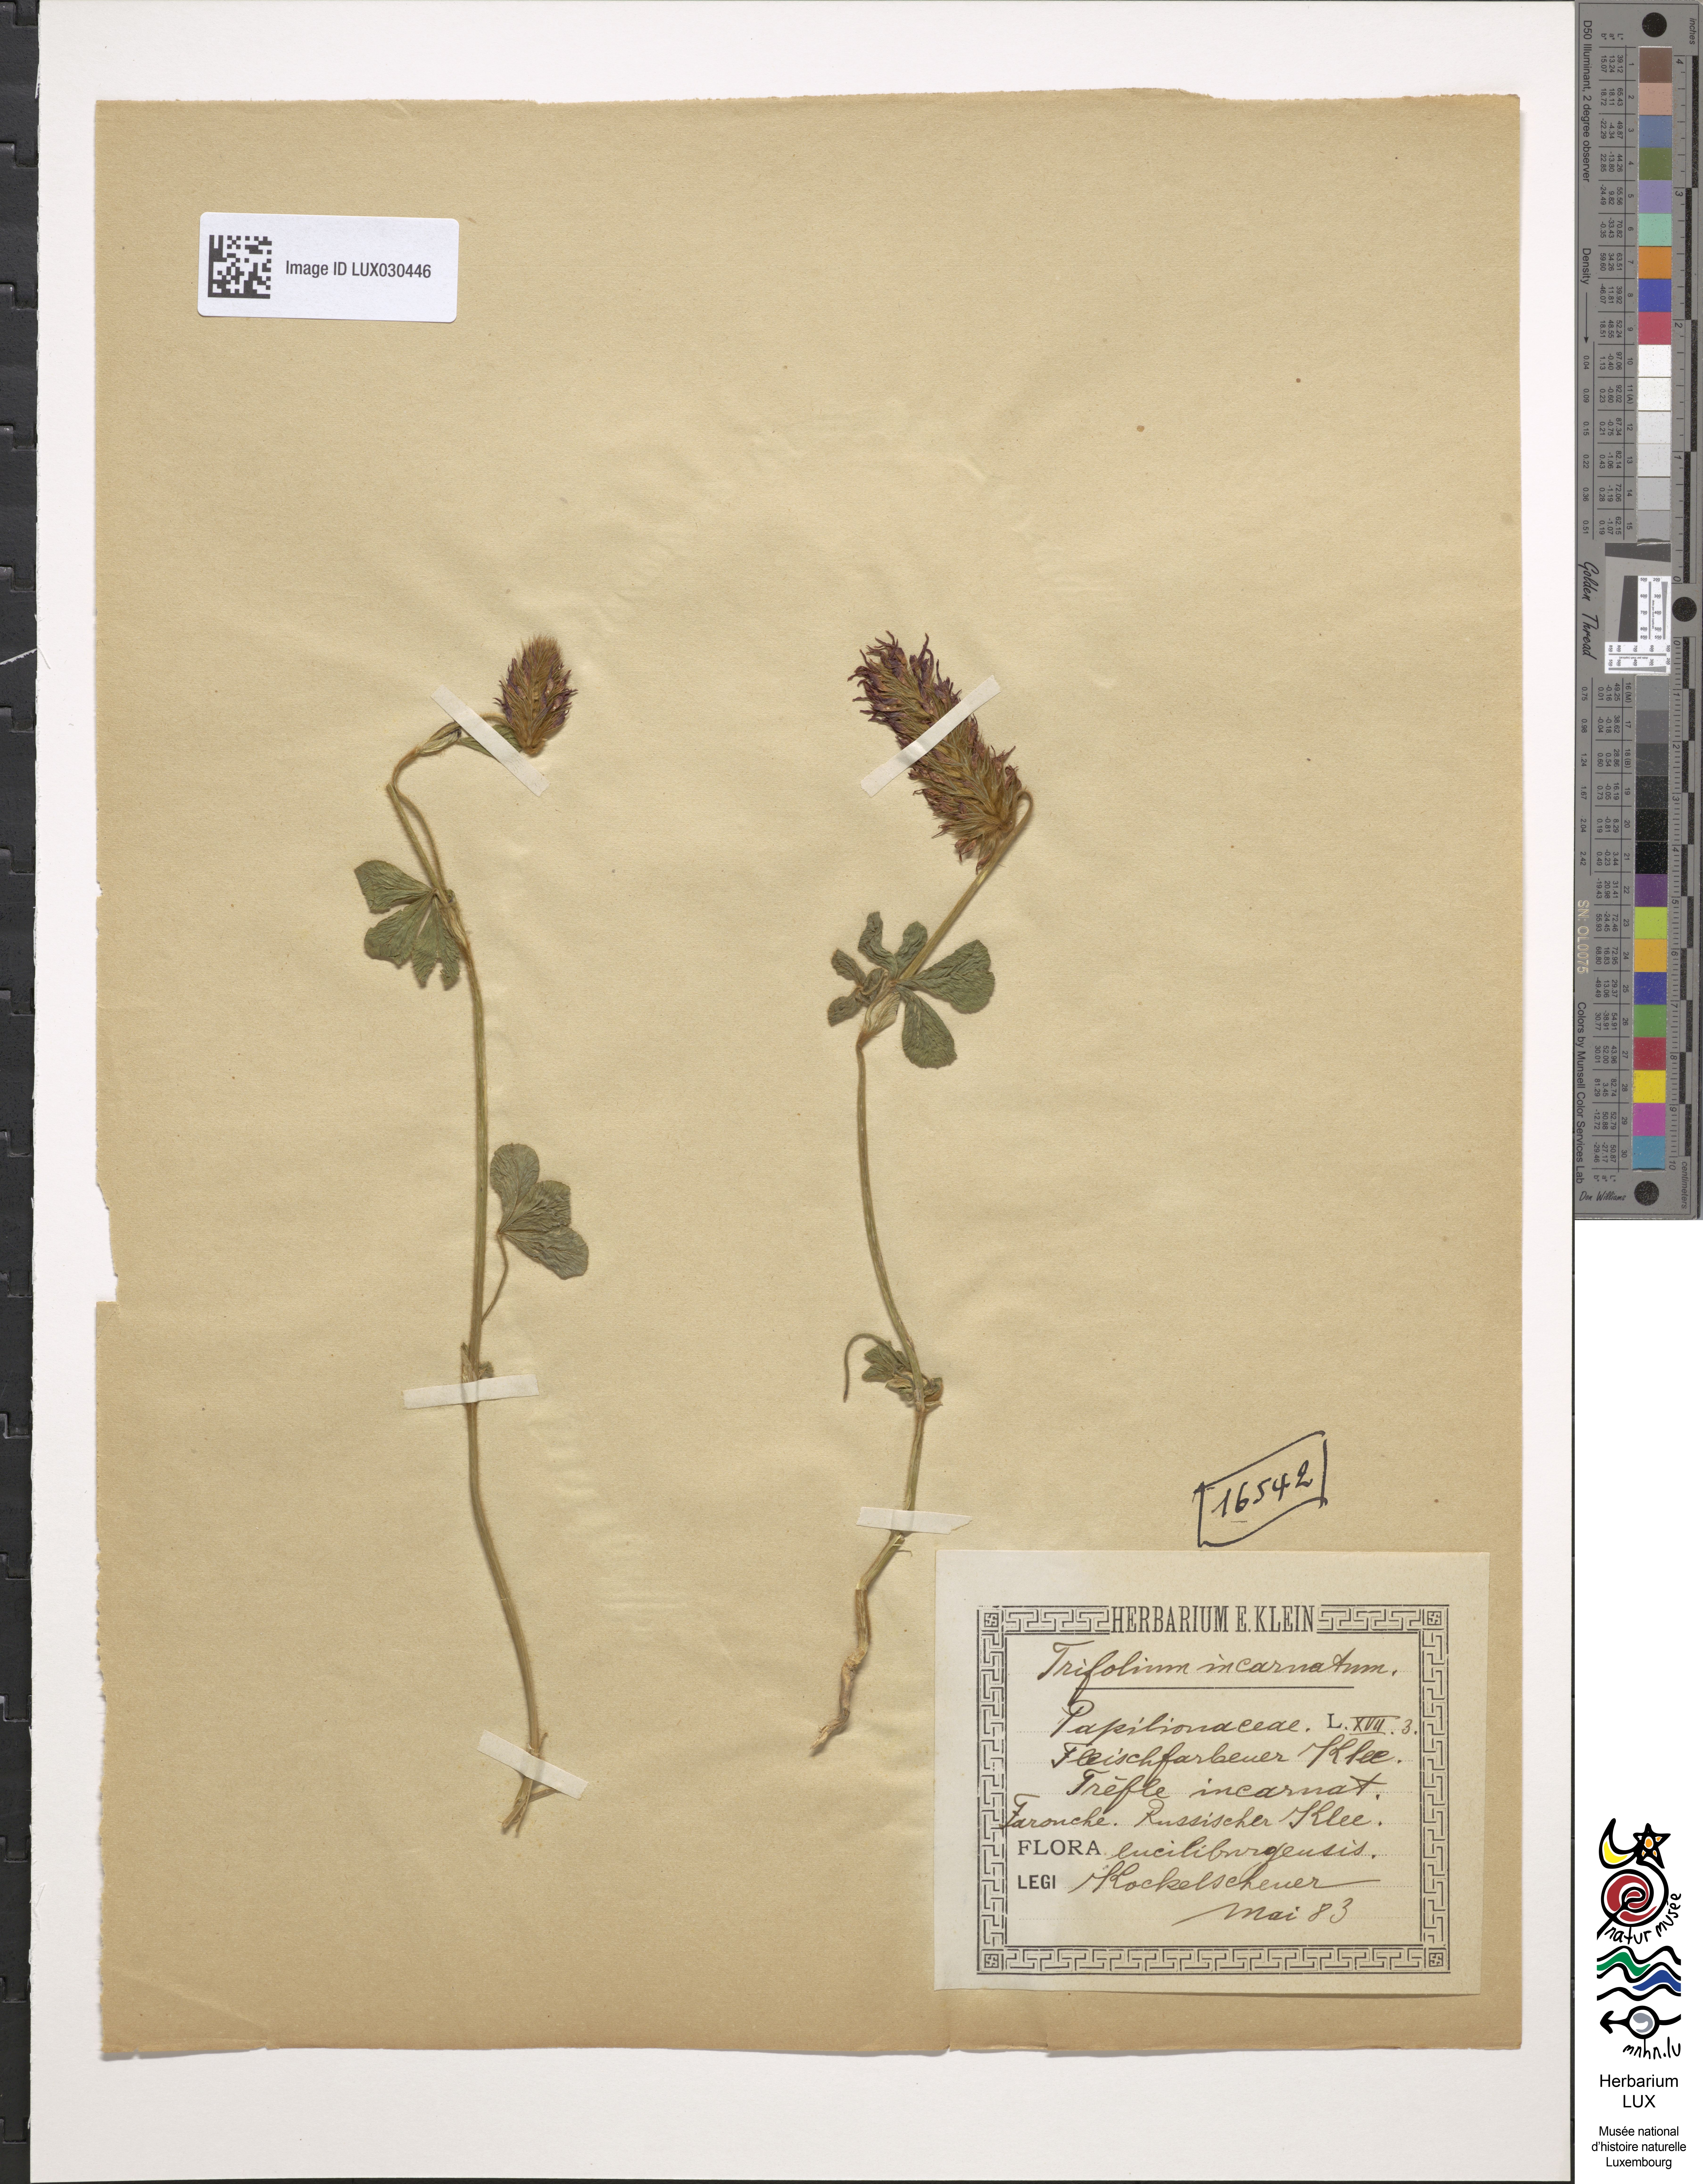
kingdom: Plantae
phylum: Tracheophyta
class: Magnoliopsida
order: Fabales
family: Fabaceae
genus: Trifolium
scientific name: Trifolium incarnatum
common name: Crimson clover
